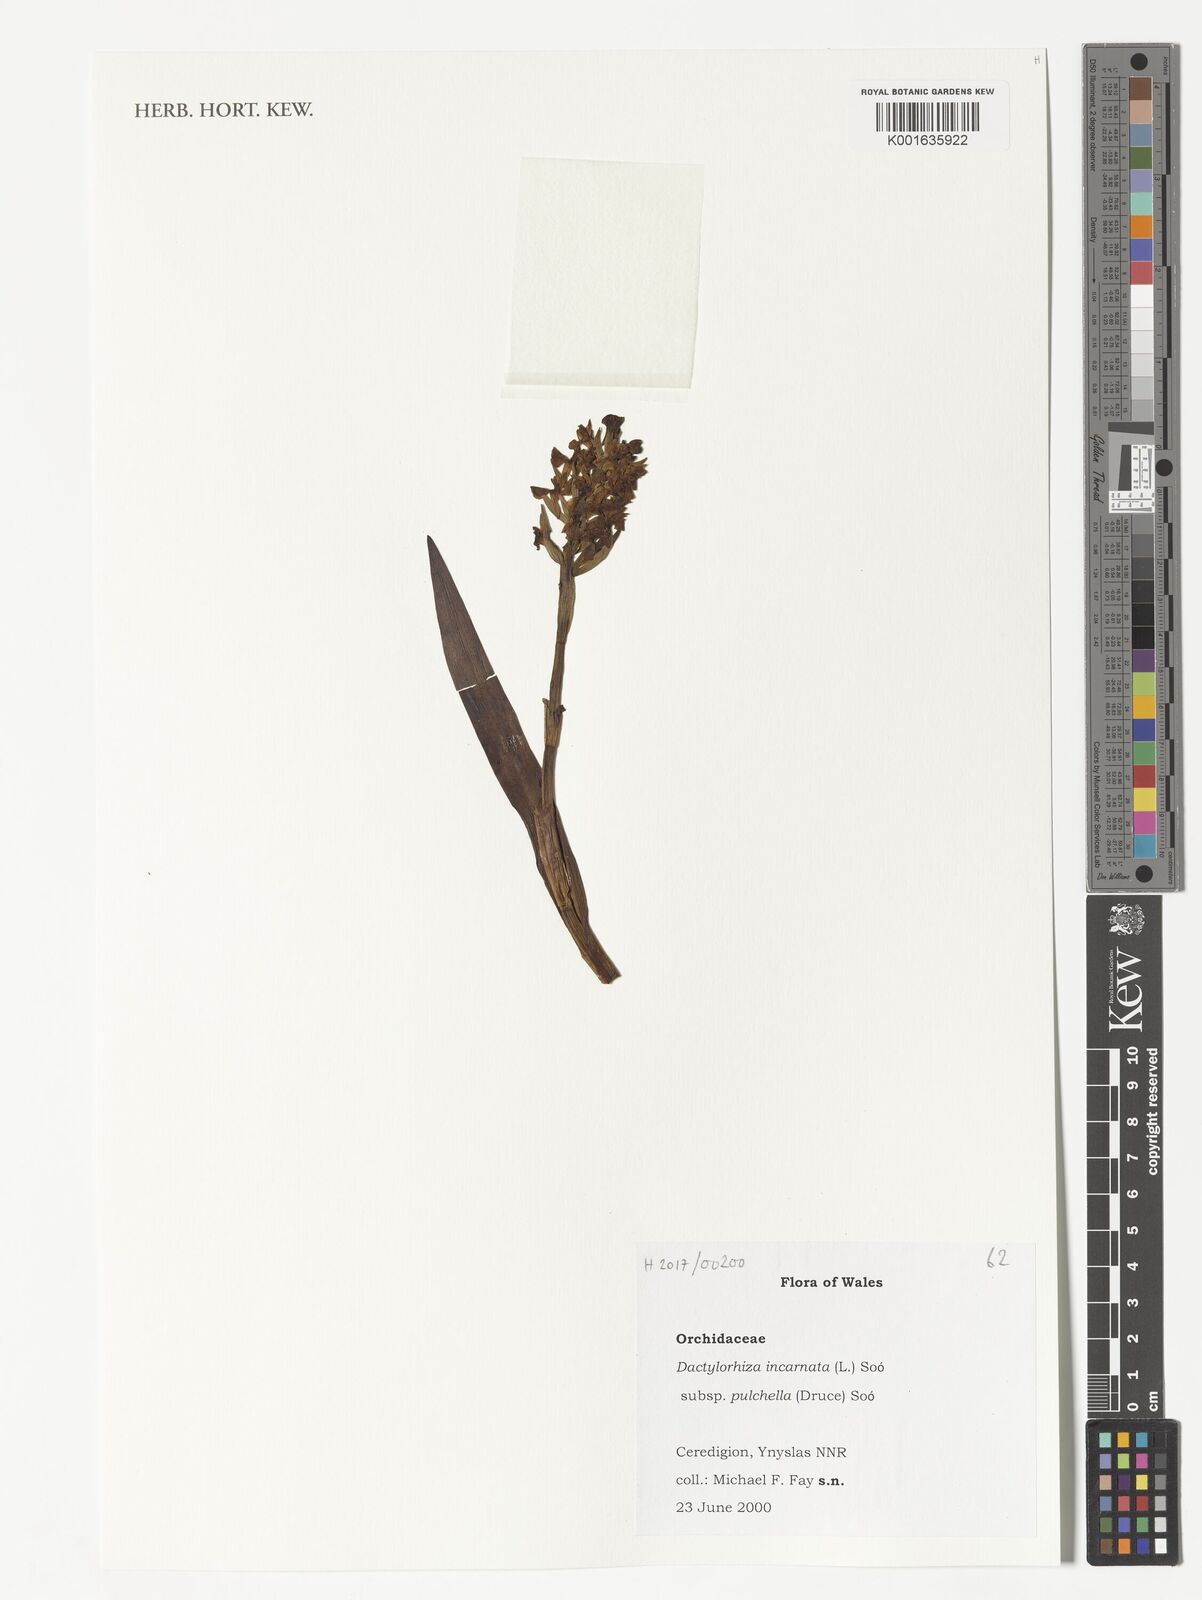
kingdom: Plantae
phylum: Tracheophyta
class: Liliopsida
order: Asparagales
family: Orchidaceae
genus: Dactylorhiza
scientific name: Dactylorhiza incarnata
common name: Early marsh-orchid
